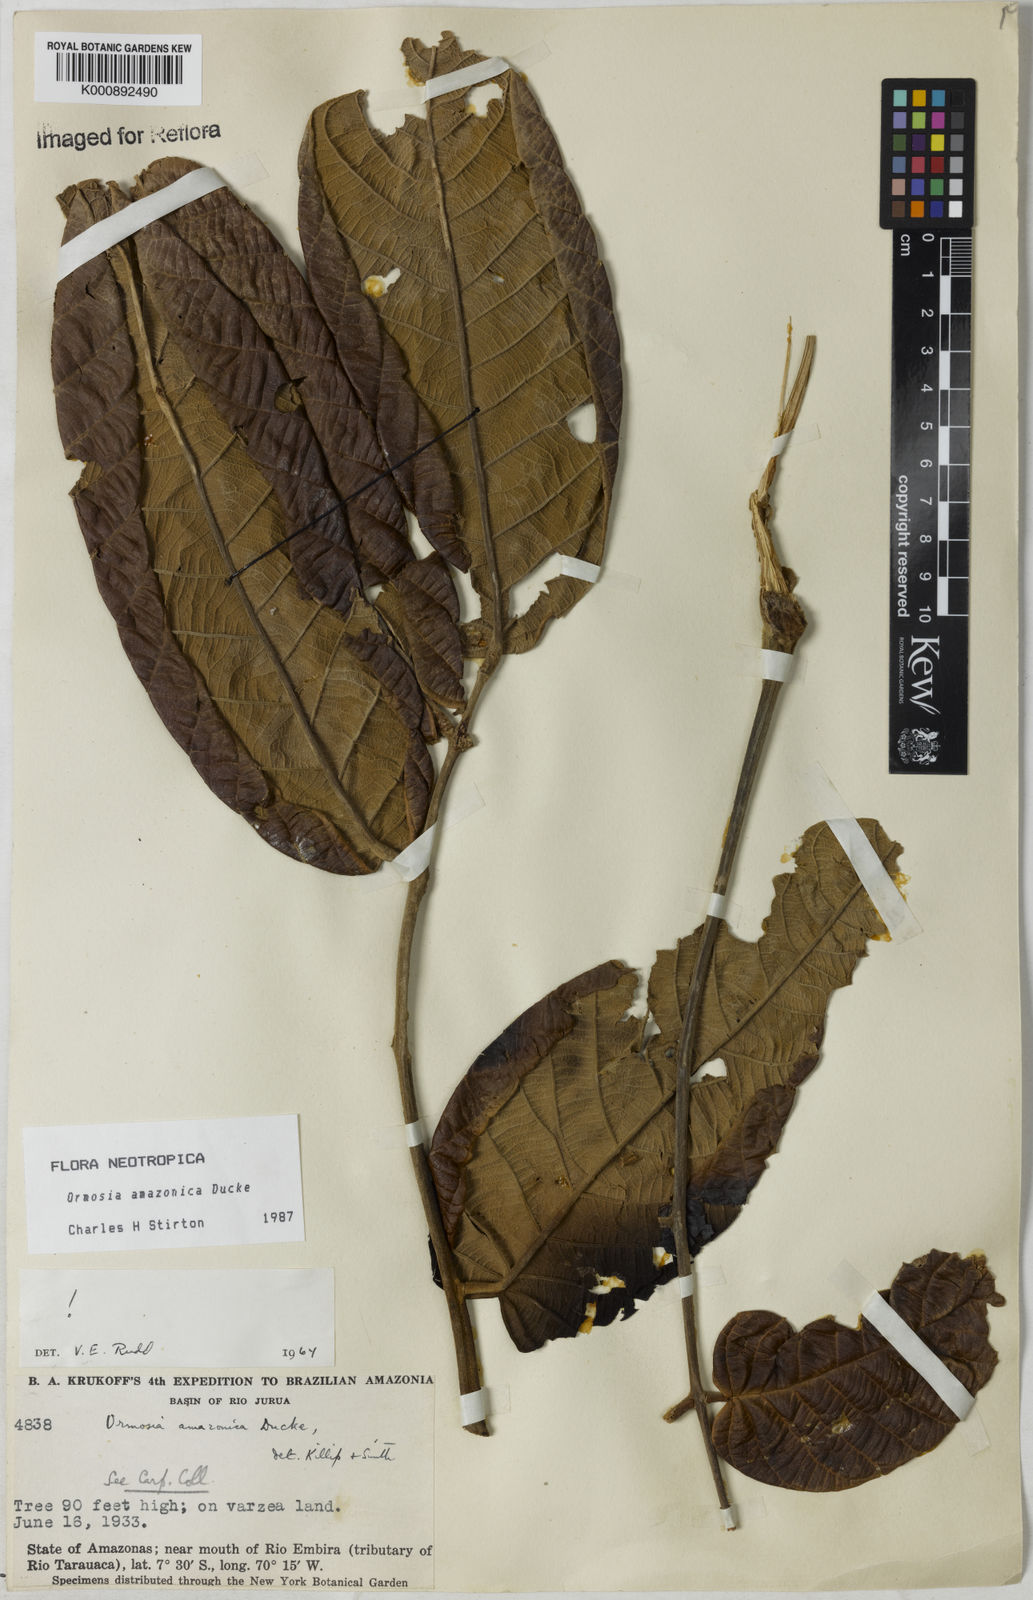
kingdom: Plantae
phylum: Tracheophyta
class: Magnoliopsida
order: Fabales
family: Fabaceae
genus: Ormosia
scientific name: Ormosia amazonica
